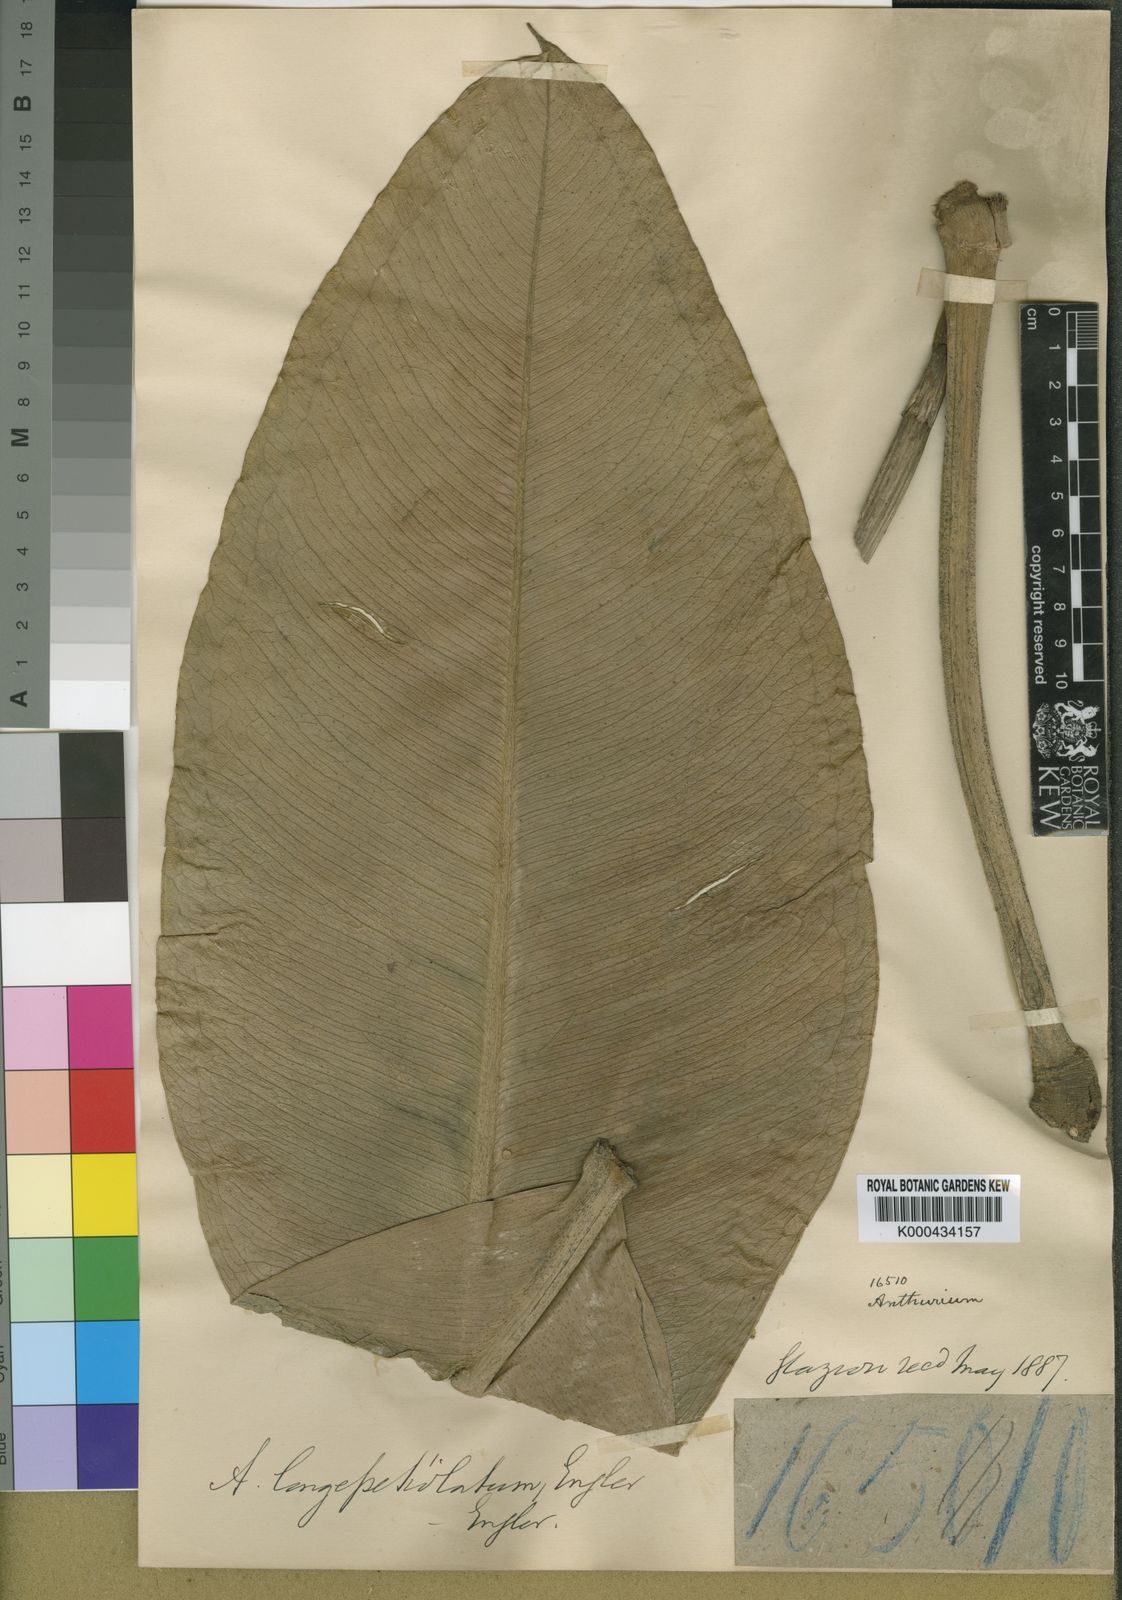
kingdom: Plantae
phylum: Tracheophyta
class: Liliopsida
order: Alismatales
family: Araceae
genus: Anthurium
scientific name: Anthurium binotii
